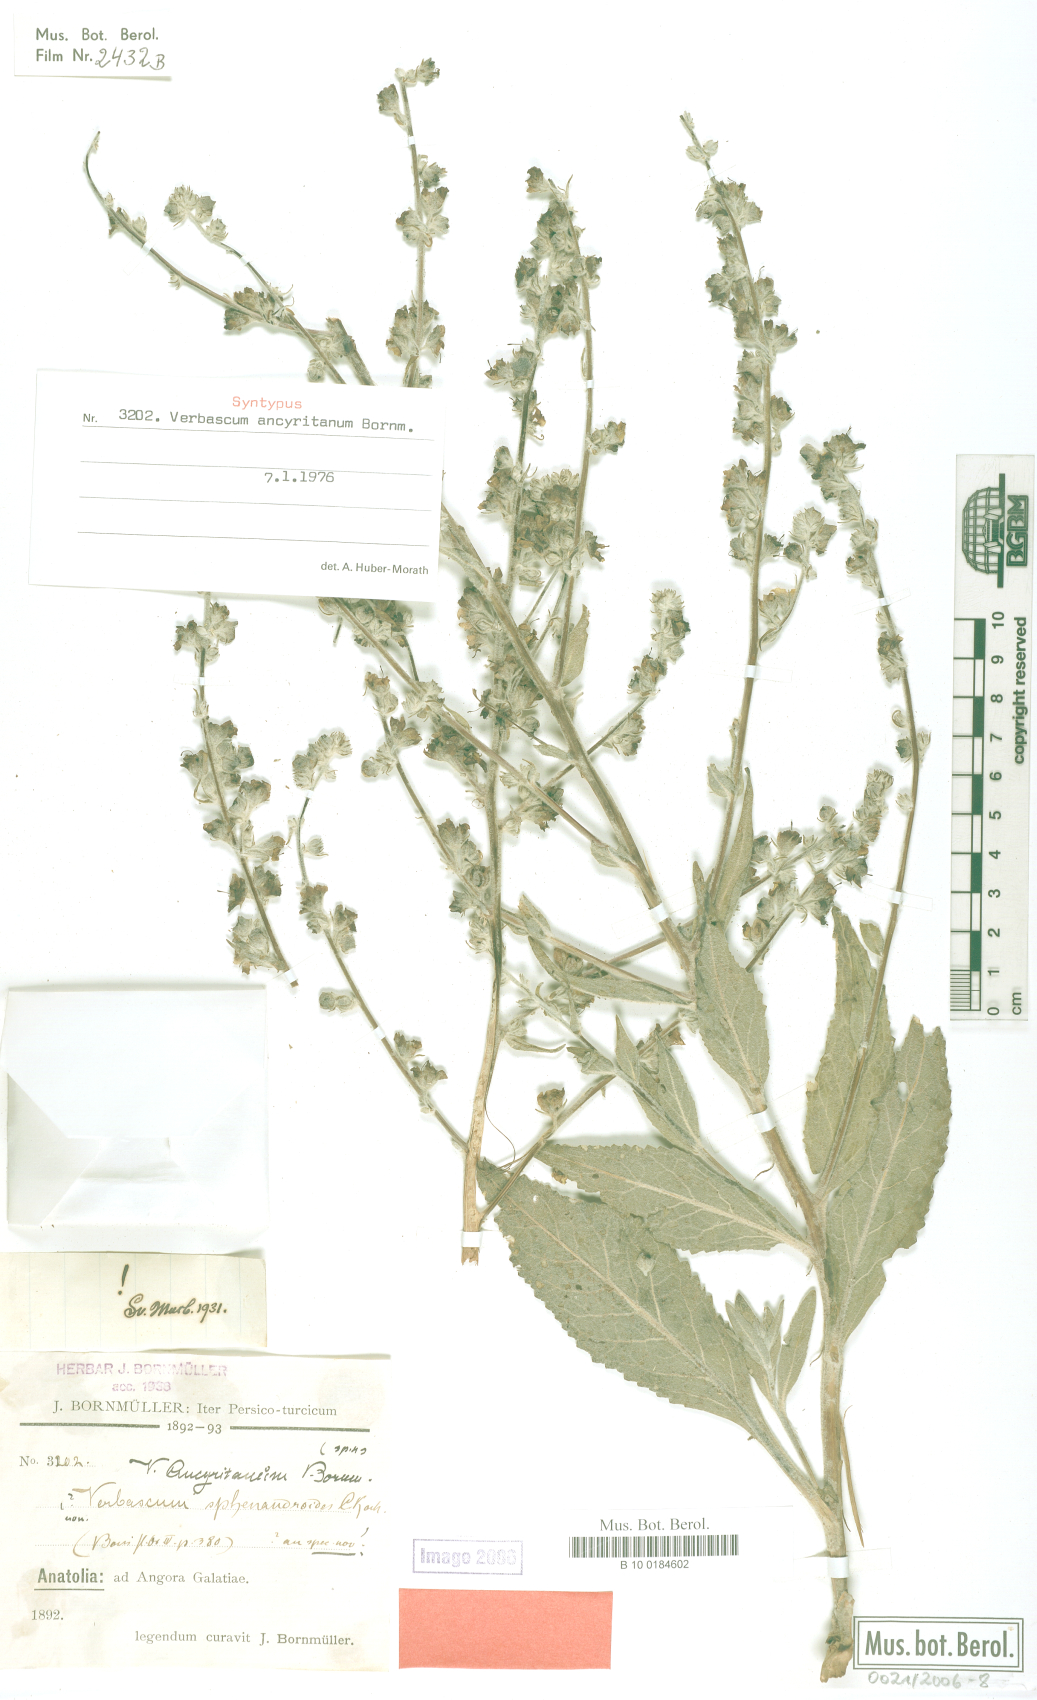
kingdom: Plantae
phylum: Tracheophyta
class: Magnoliopsida
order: Lamiales
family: Scrophulariaceae
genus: Verbascum
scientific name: Verbascum ancyritanum
